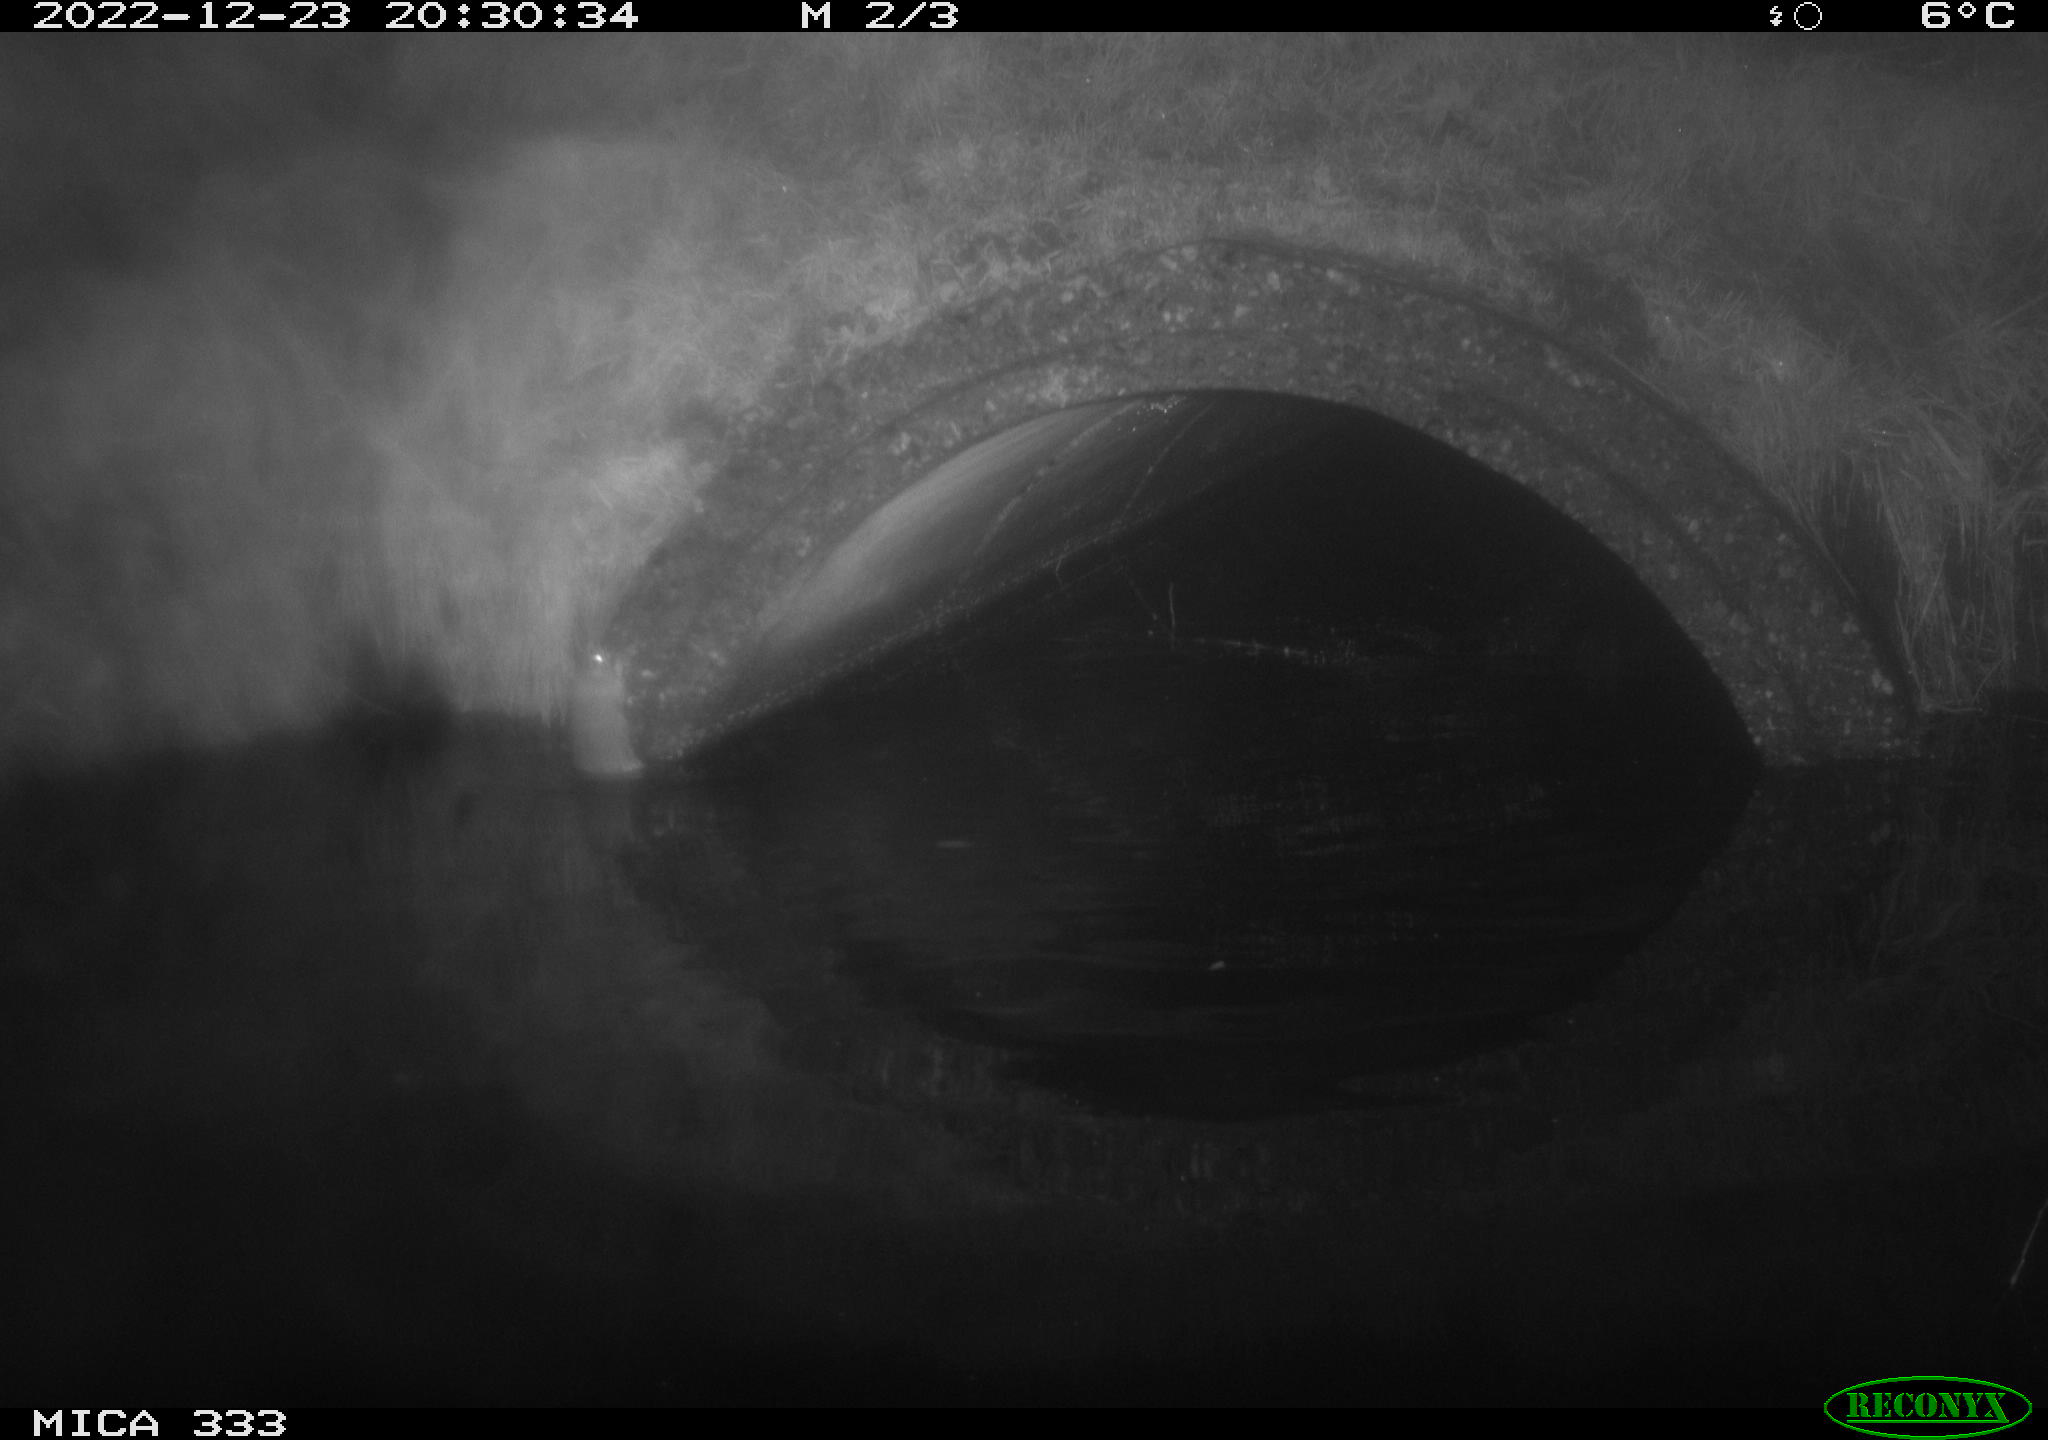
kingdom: Animalia
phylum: Chordata
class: Mammalia
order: Rodentia
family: Muridae
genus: Rattus
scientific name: Rattus norvegicus
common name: Brown rat
